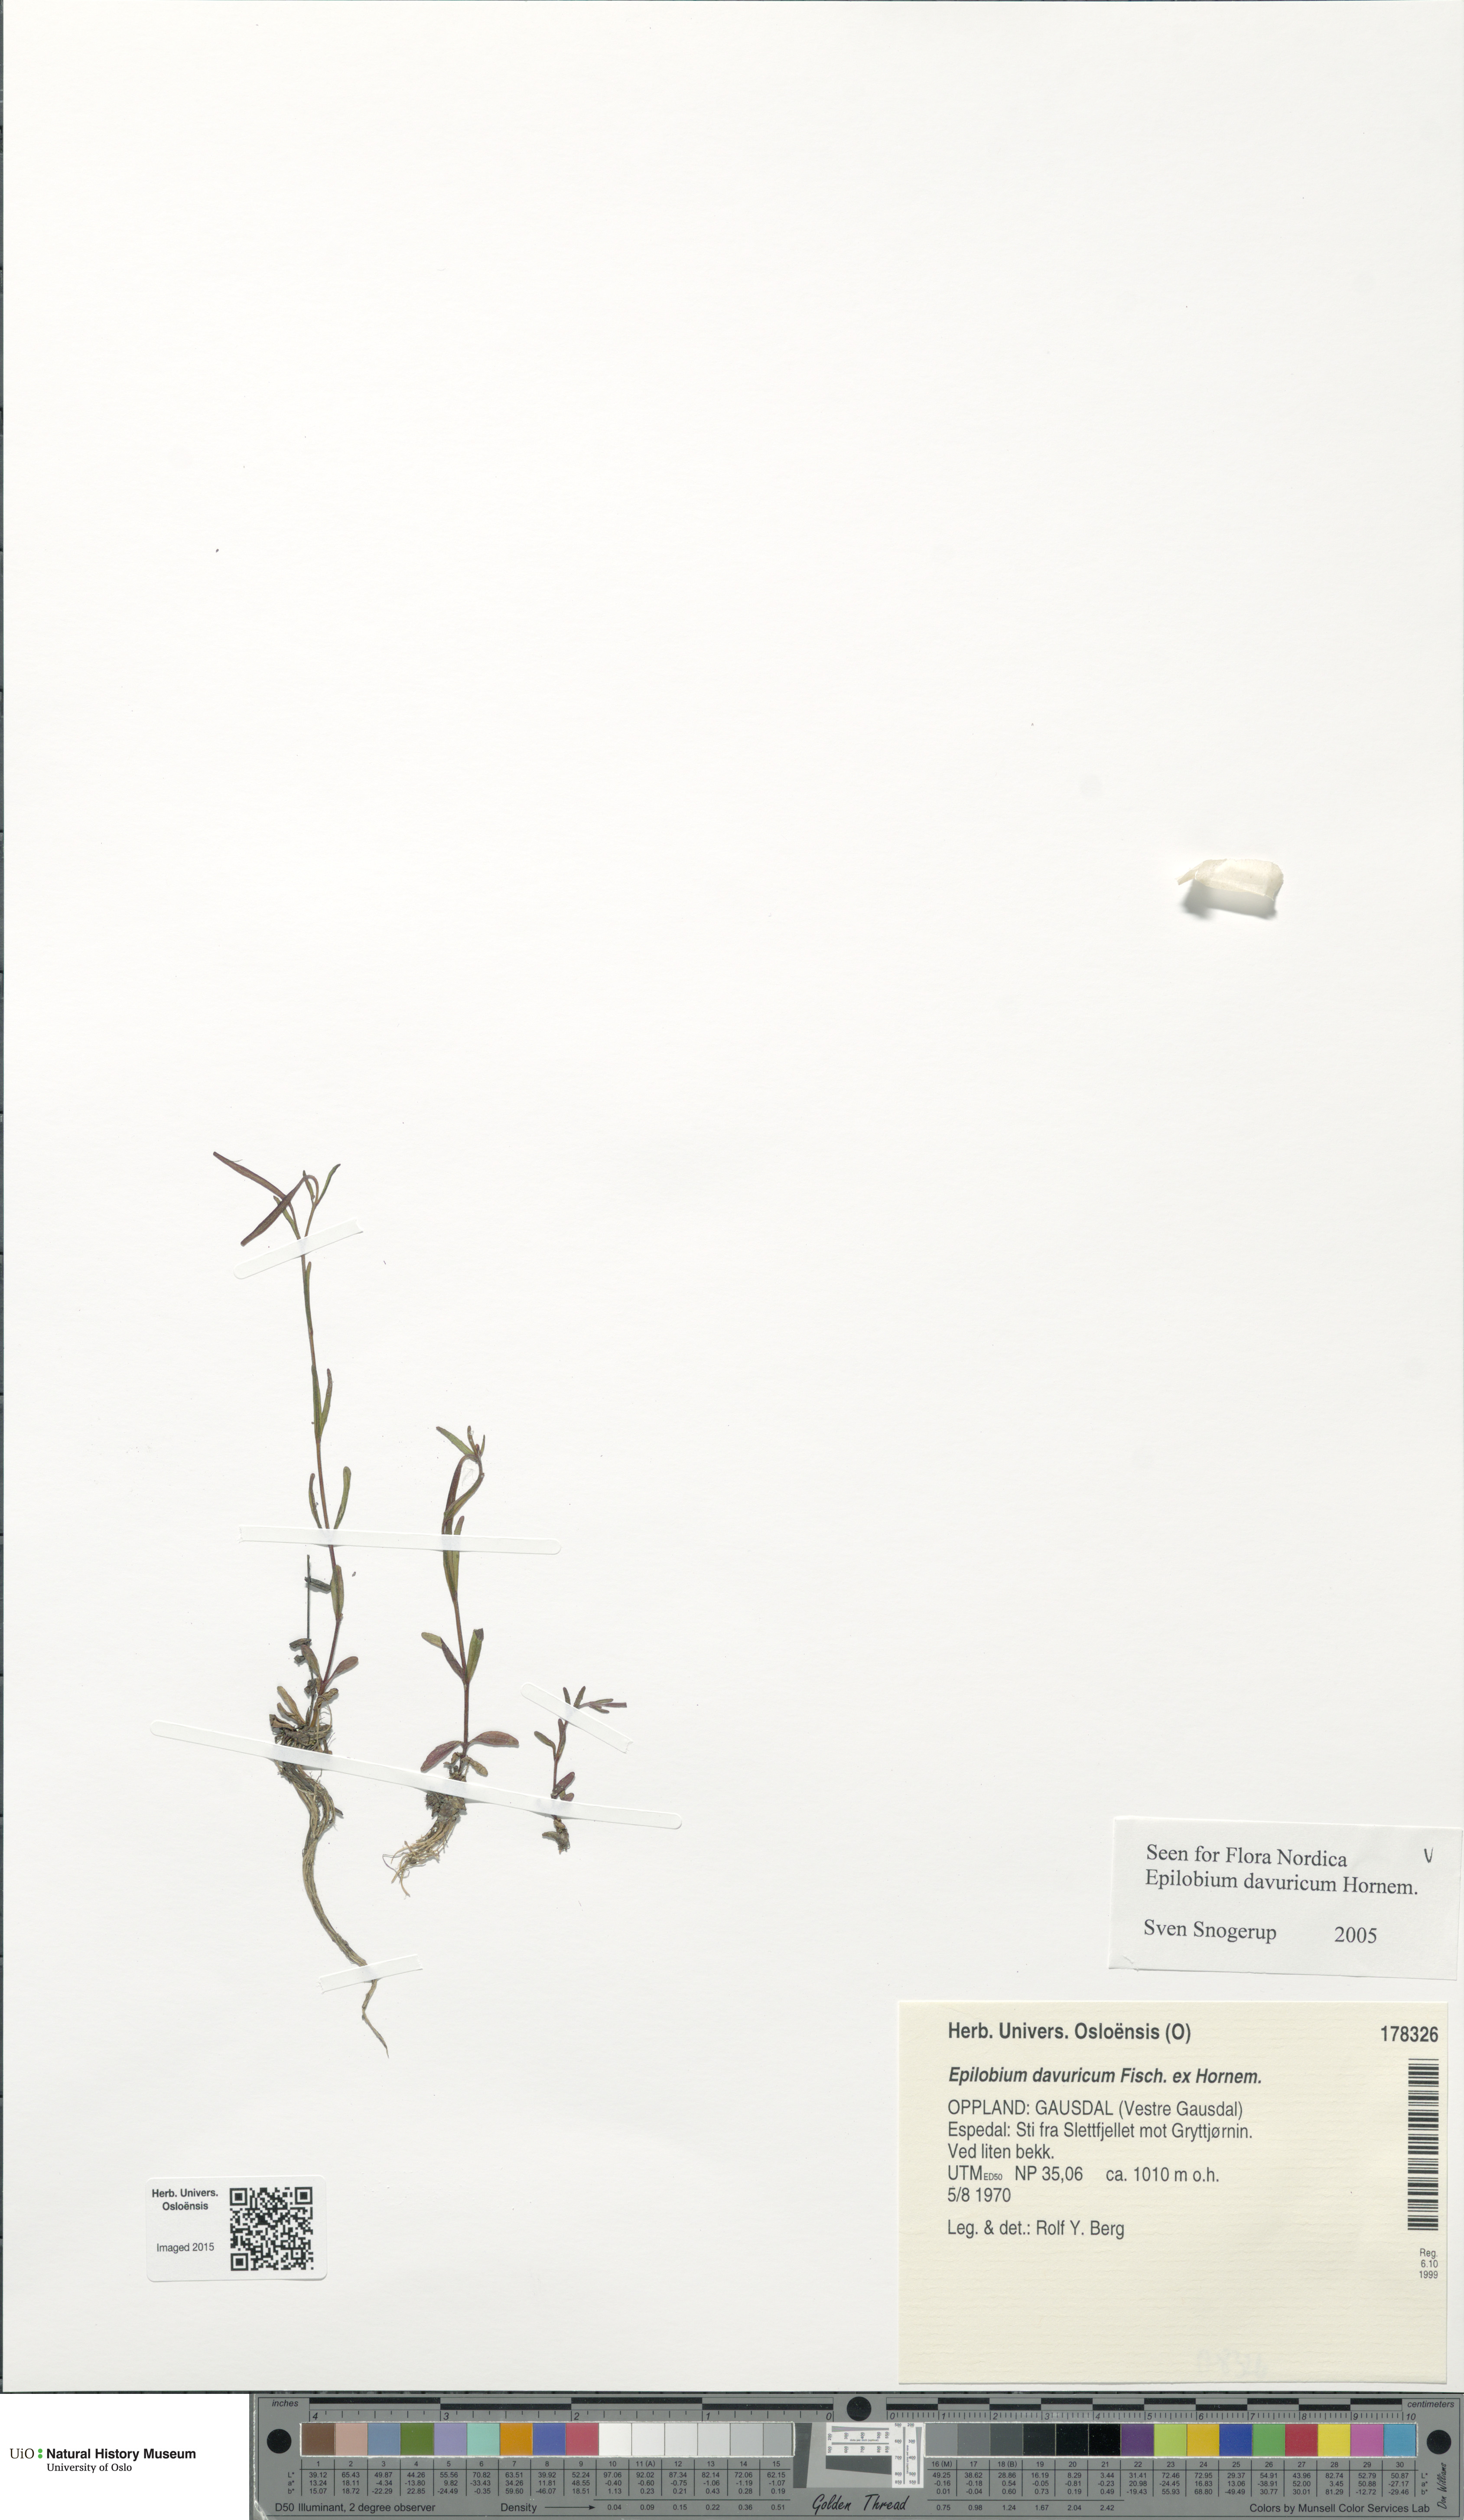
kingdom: Plantae
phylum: Tracheophyta
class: Magnoliopsida
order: Myrtales
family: Onagraceae
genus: Epilobium
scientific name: Epilobium davuricum
